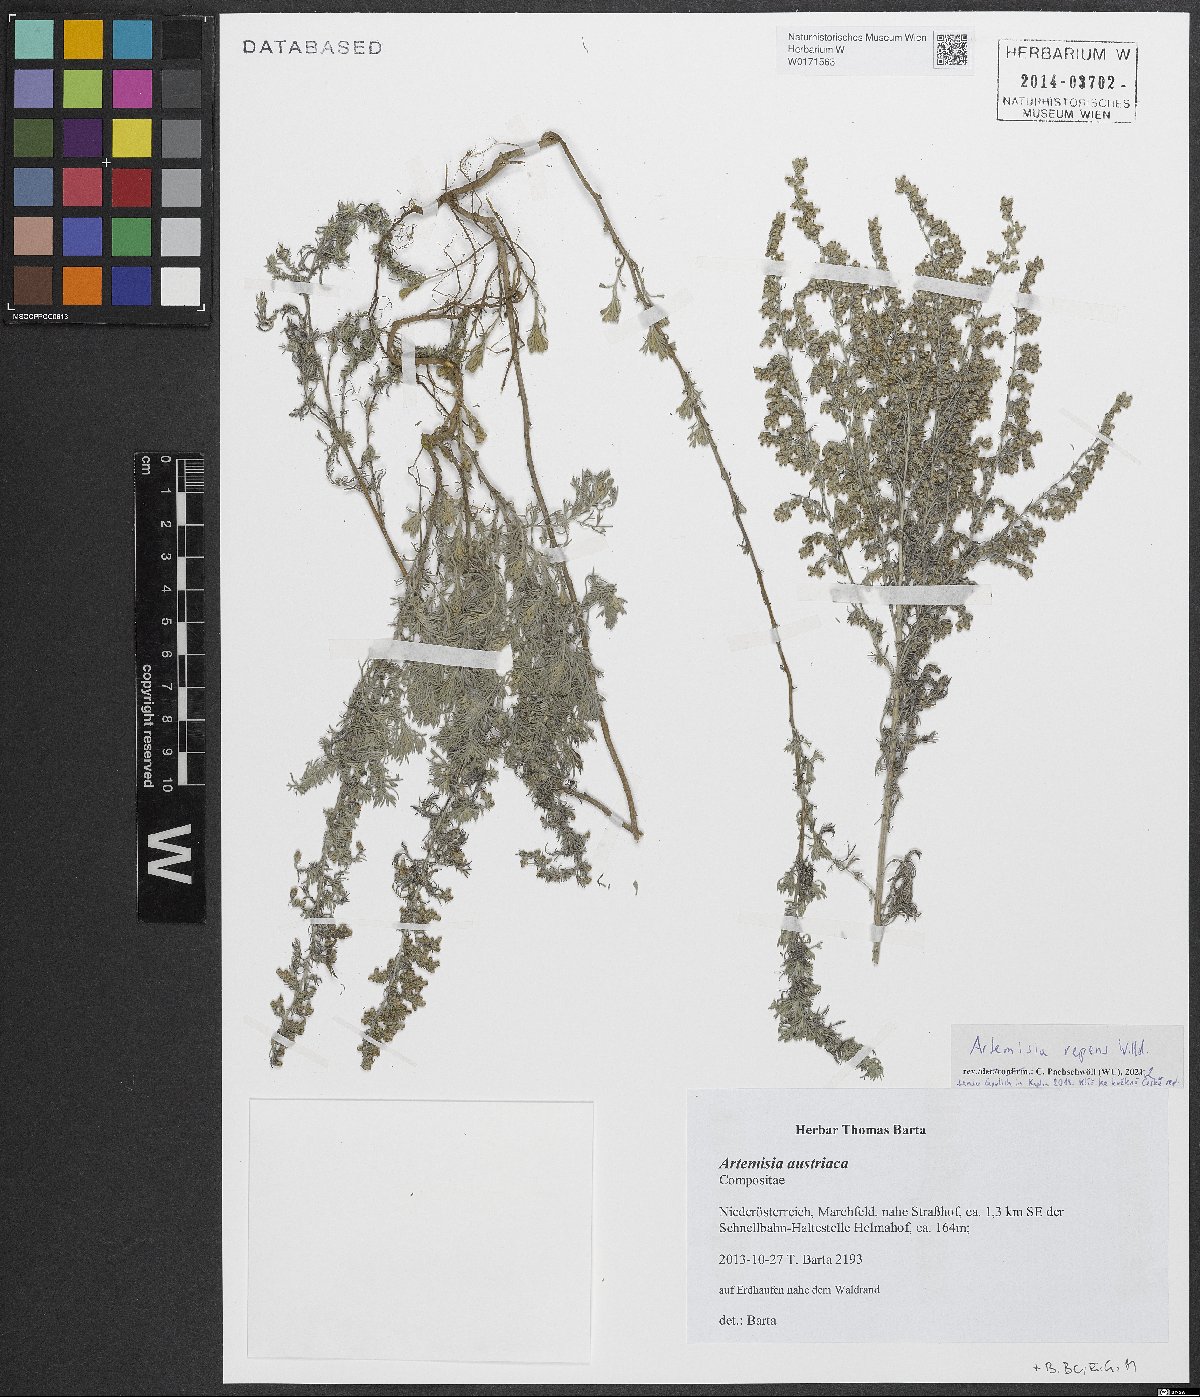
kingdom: Plantae
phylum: Tracheophyta
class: Magnoliopsida
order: Asterales
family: Asteraceae
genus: Artemisia
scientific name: Artemisia repens
